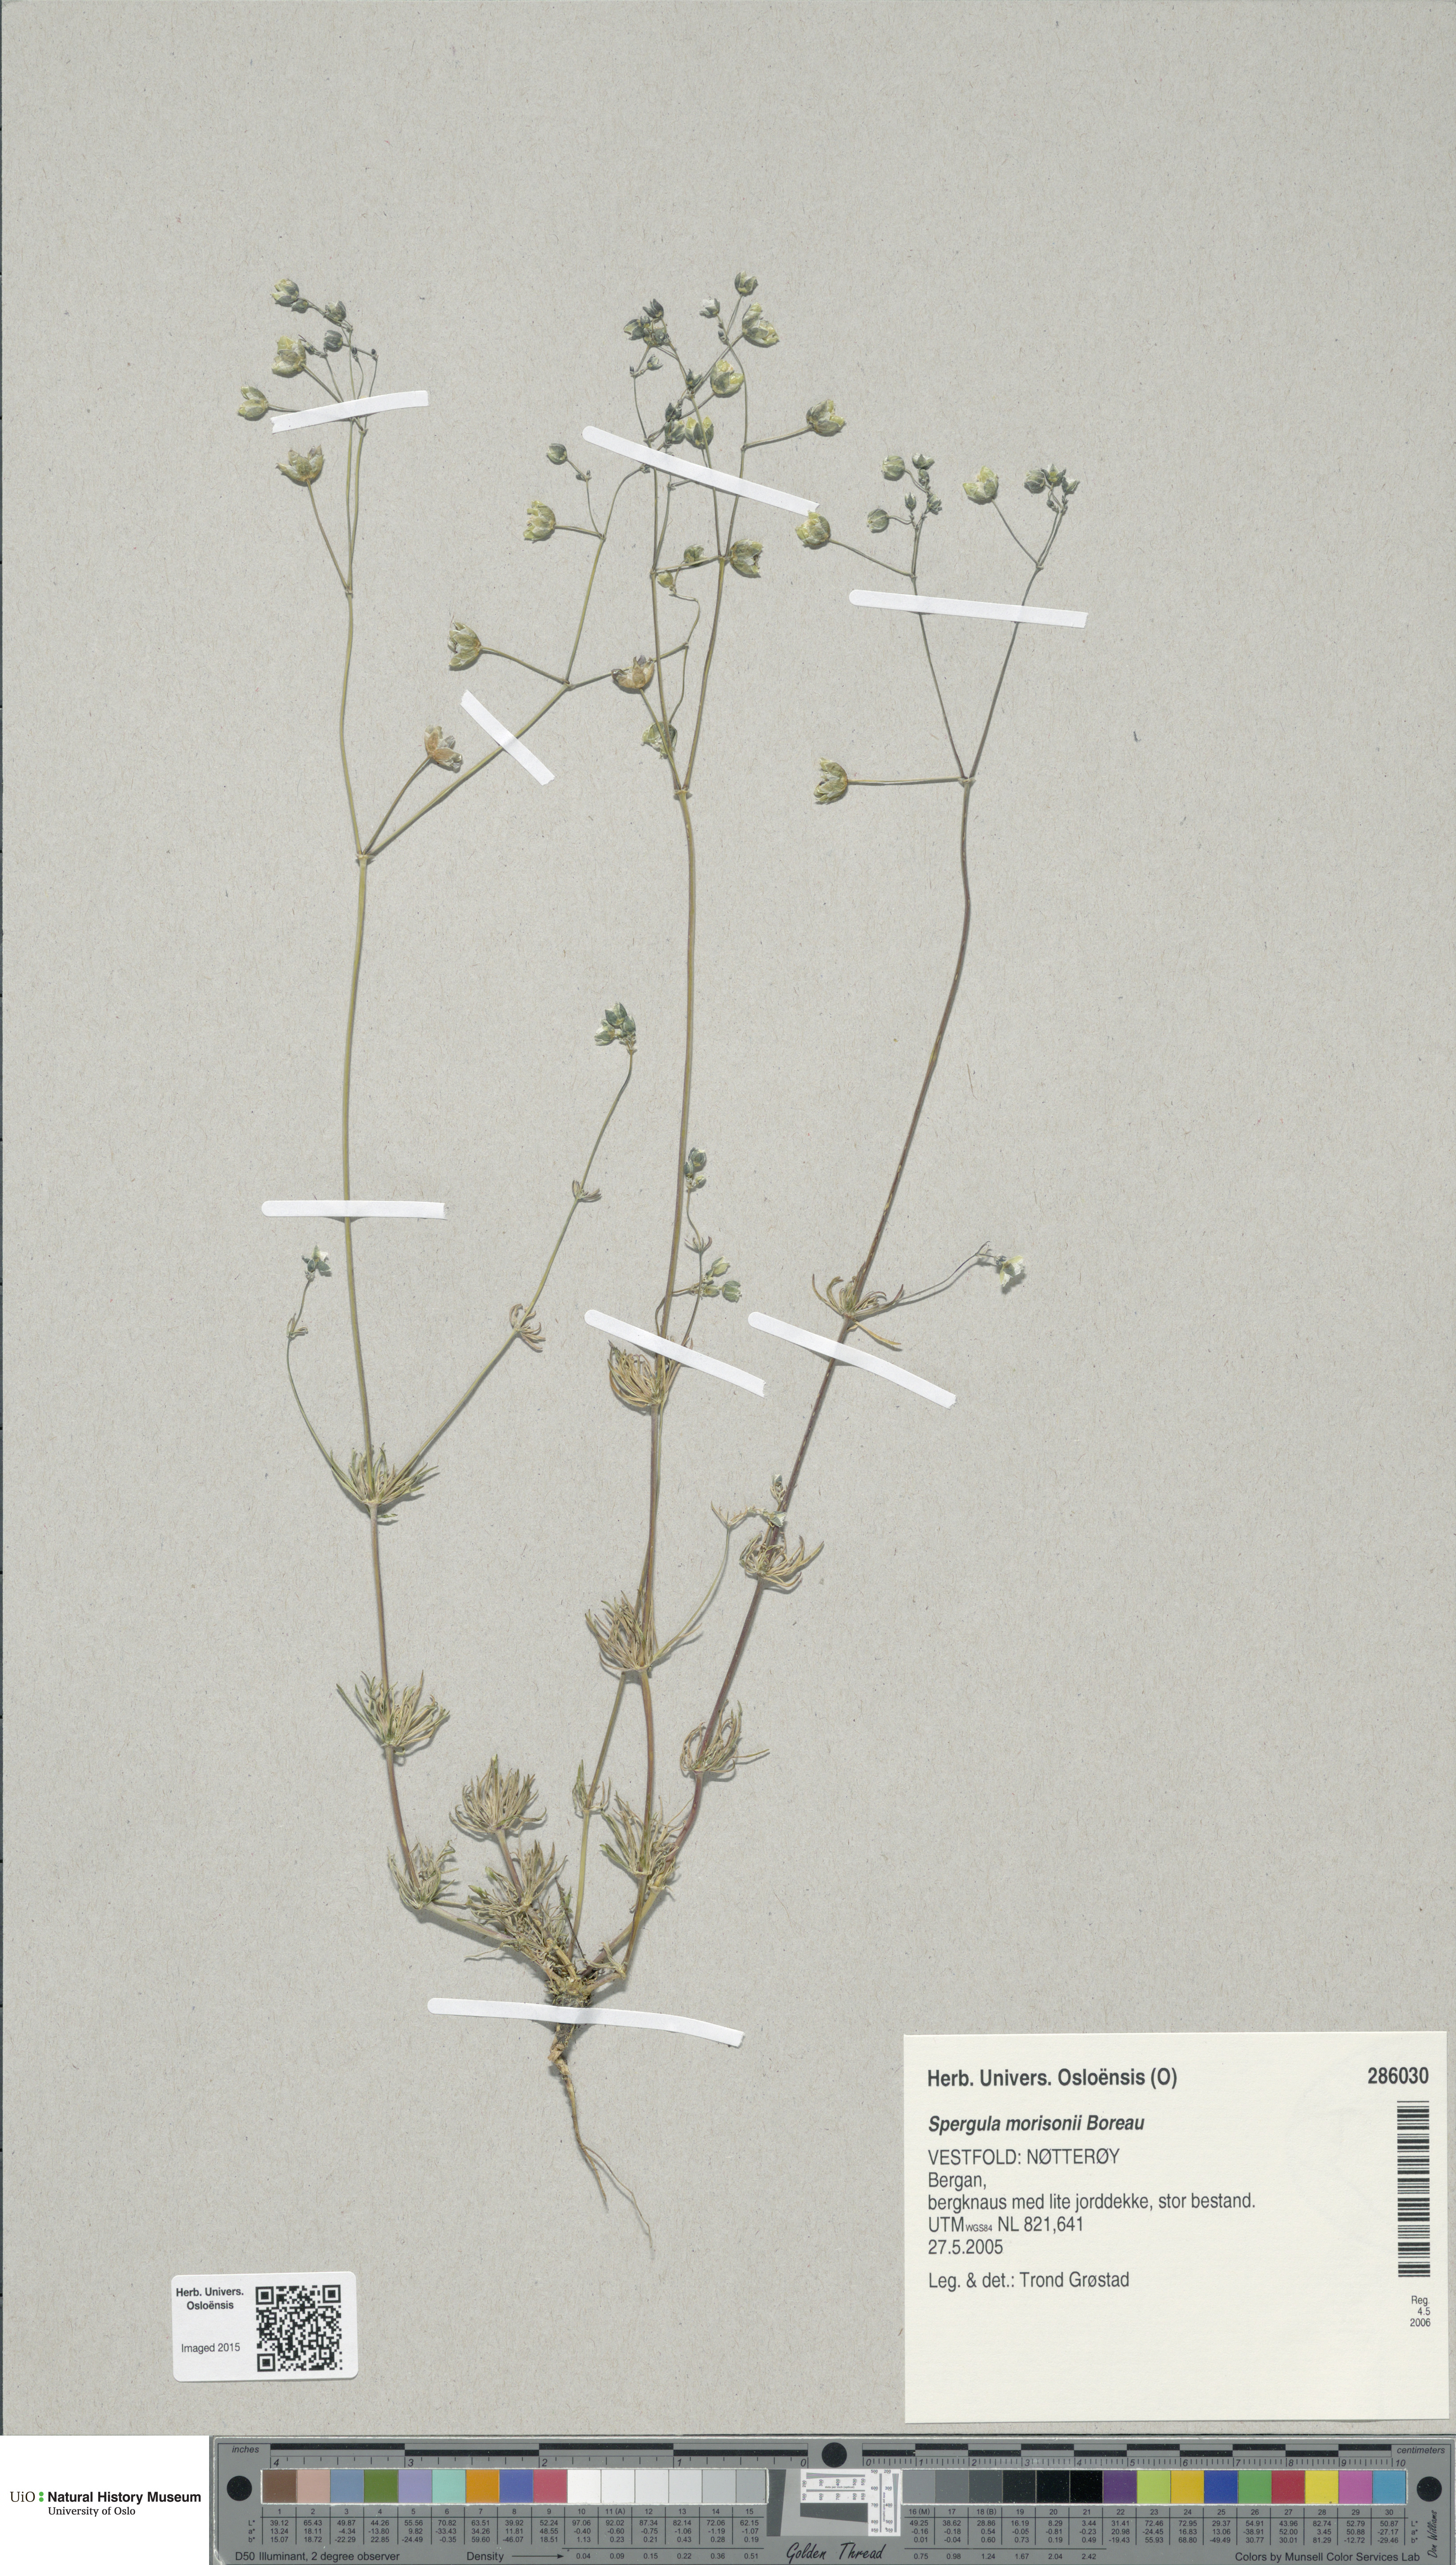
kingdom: Plantae
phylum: Tracheophyta
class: Magnoliopsida
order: Caryophyllales
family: Caryophyllaceae
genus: Spergula
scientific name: Spergula morisonii
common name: Pearlwort spurrey
